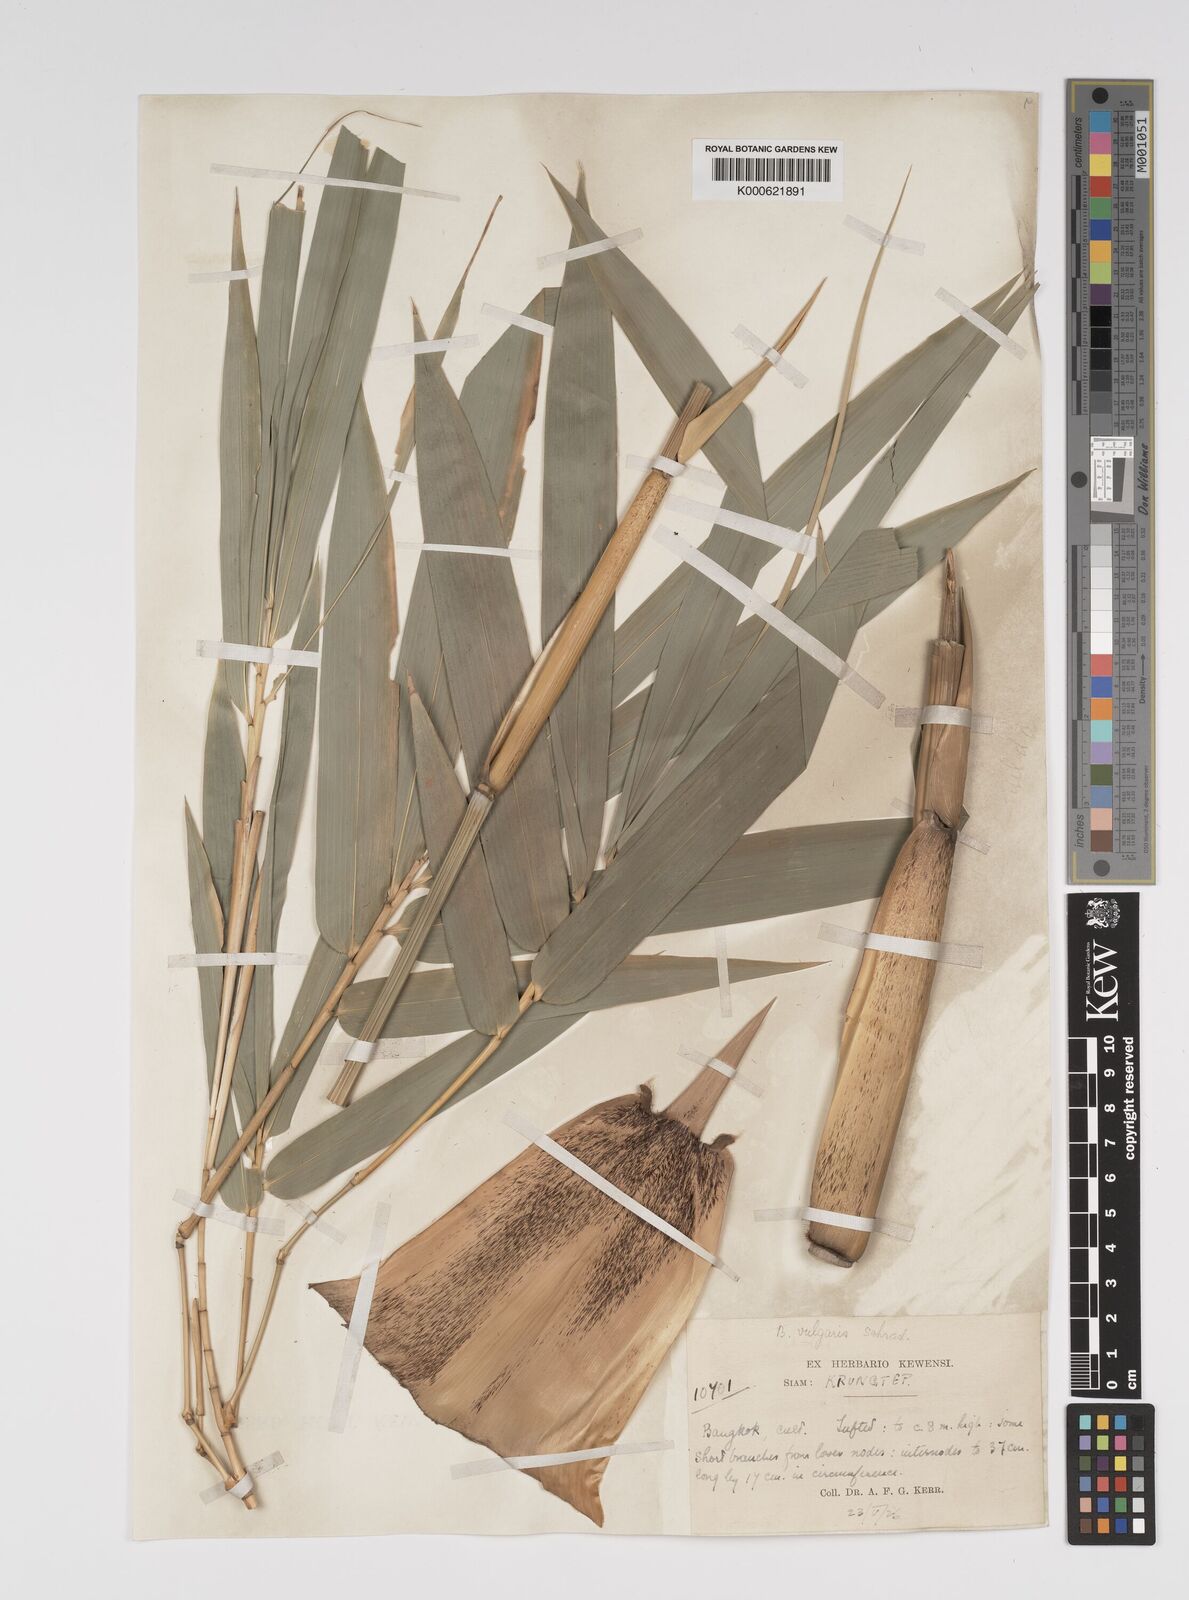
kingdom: Plantae
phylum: Tracheophyta
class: Liliopsida
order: Poales
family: Poaceae
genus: Bambusa
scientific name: Bambusa
